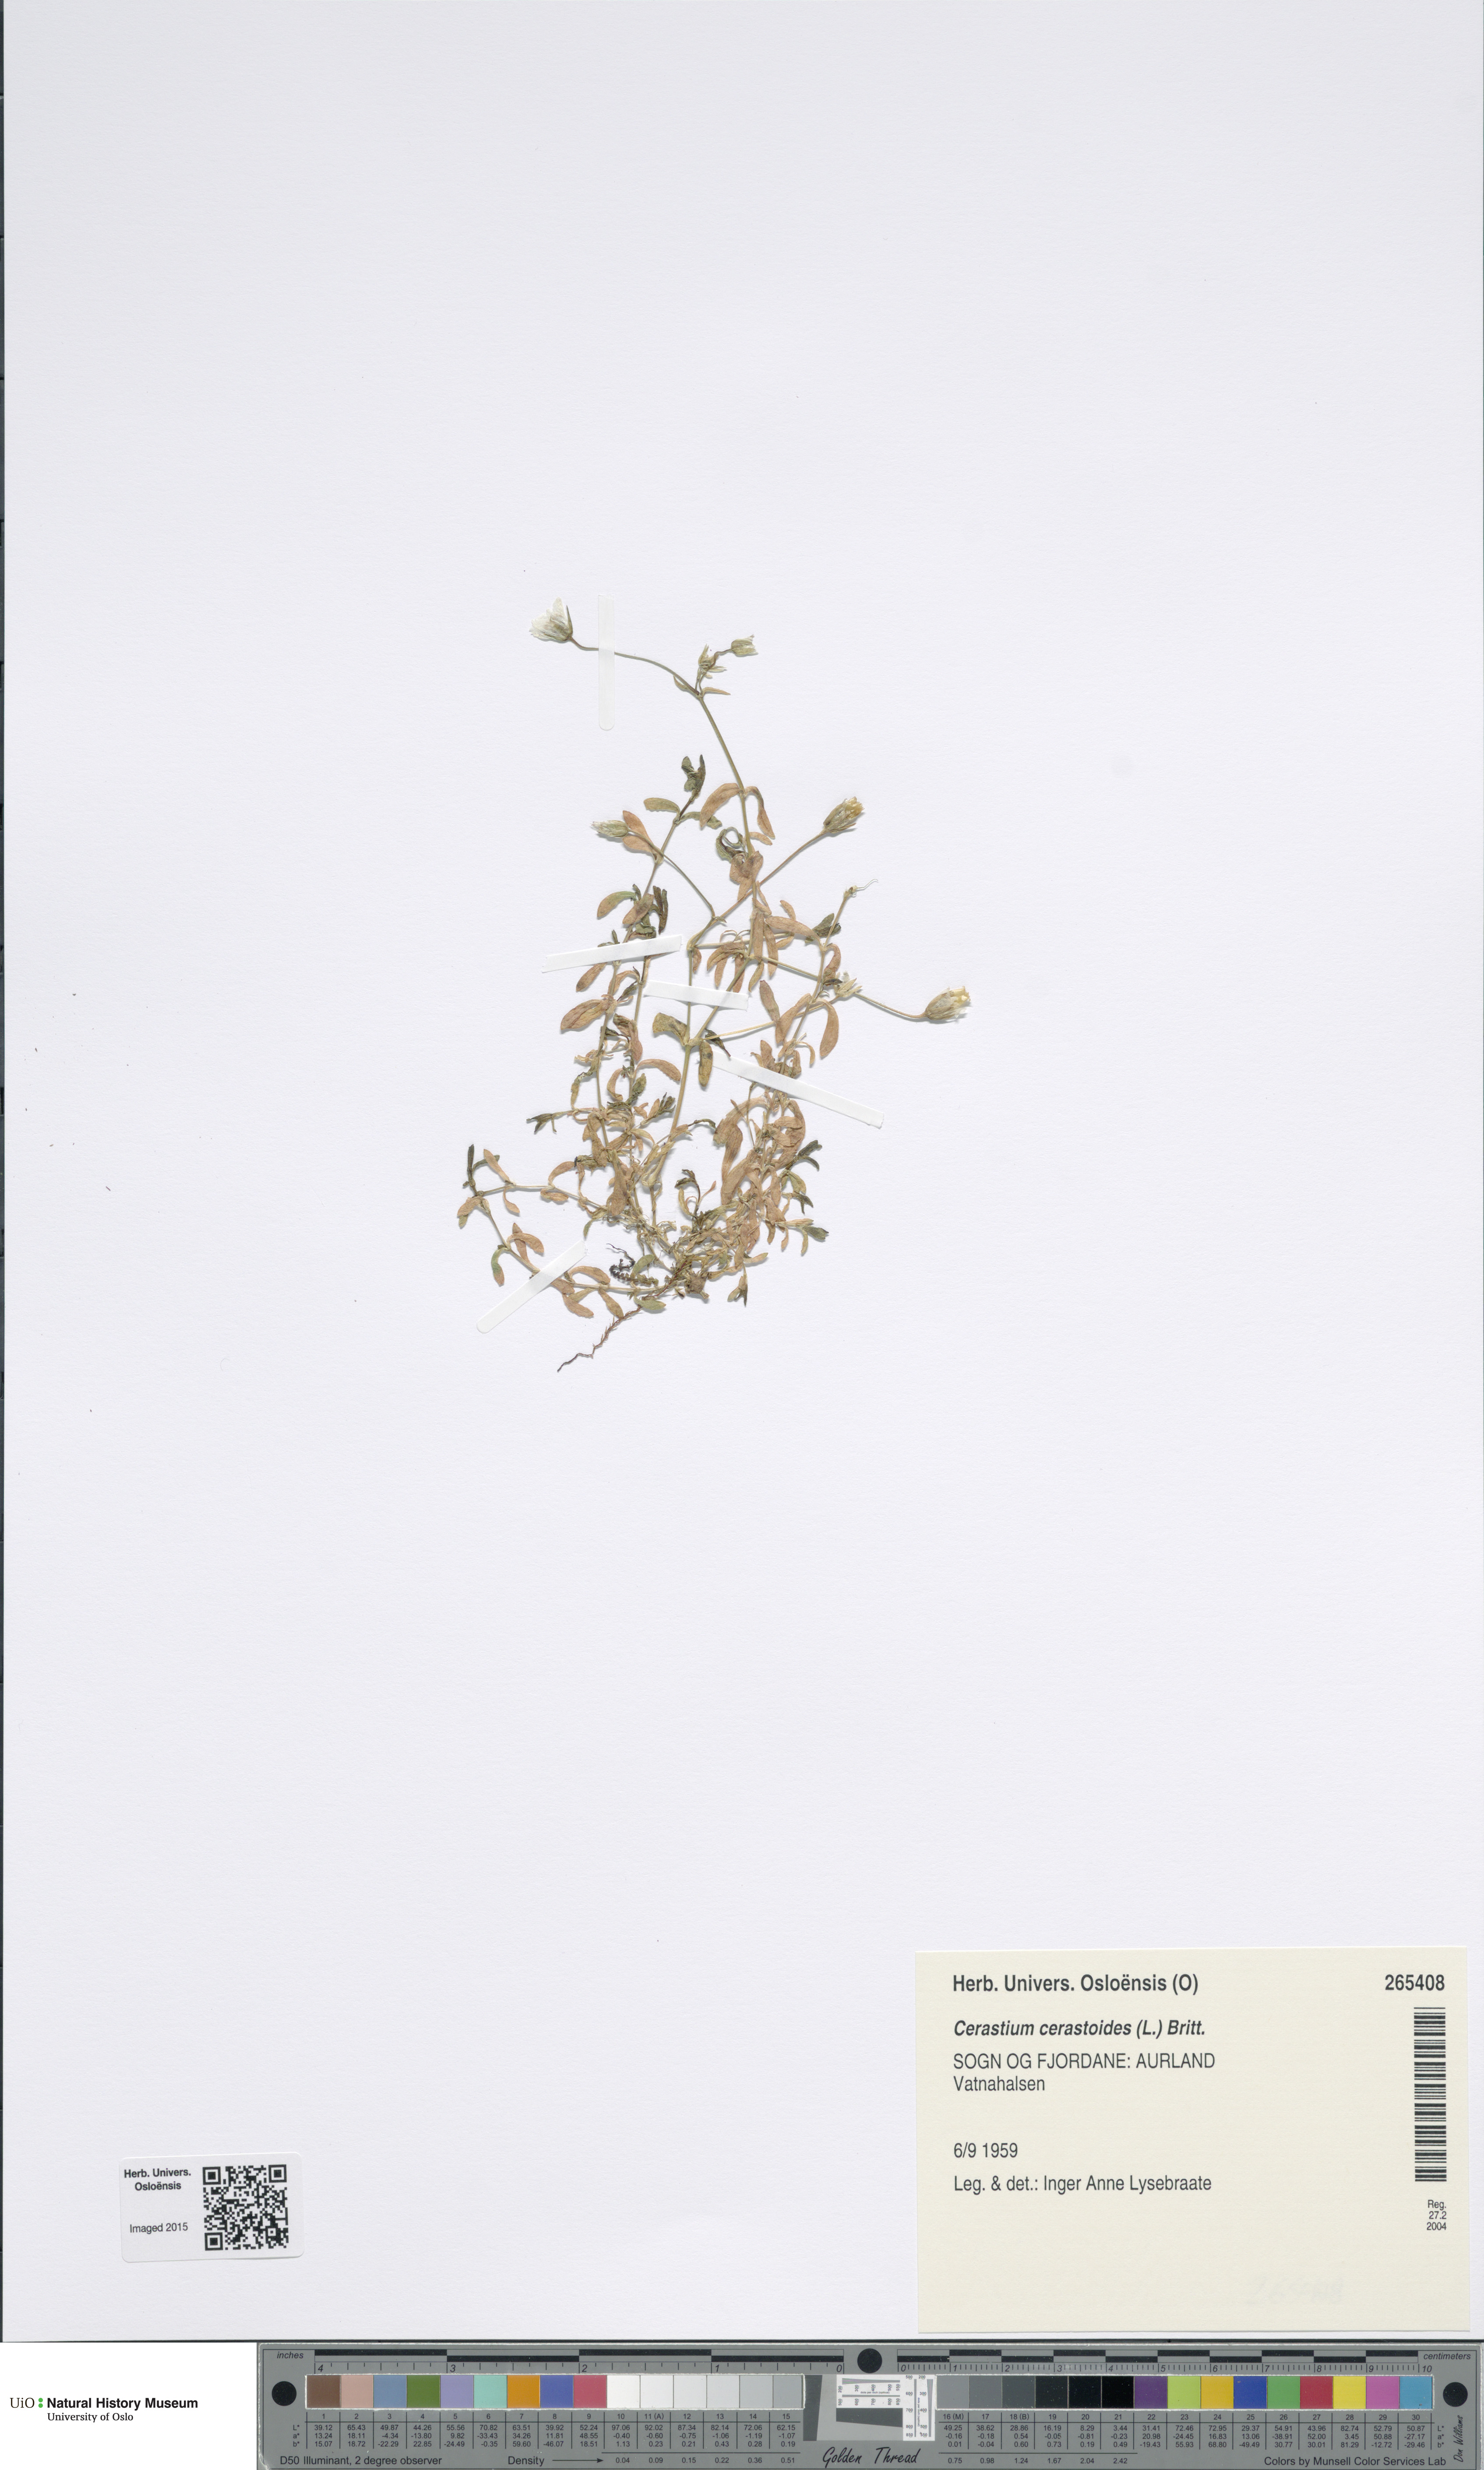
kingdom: Plantae
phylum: Tracheophyta
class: Magnoliopsida
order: Caryophyllales
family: Caryophyllaceae
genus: Dichodon
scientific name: Dichodon cerastoides
